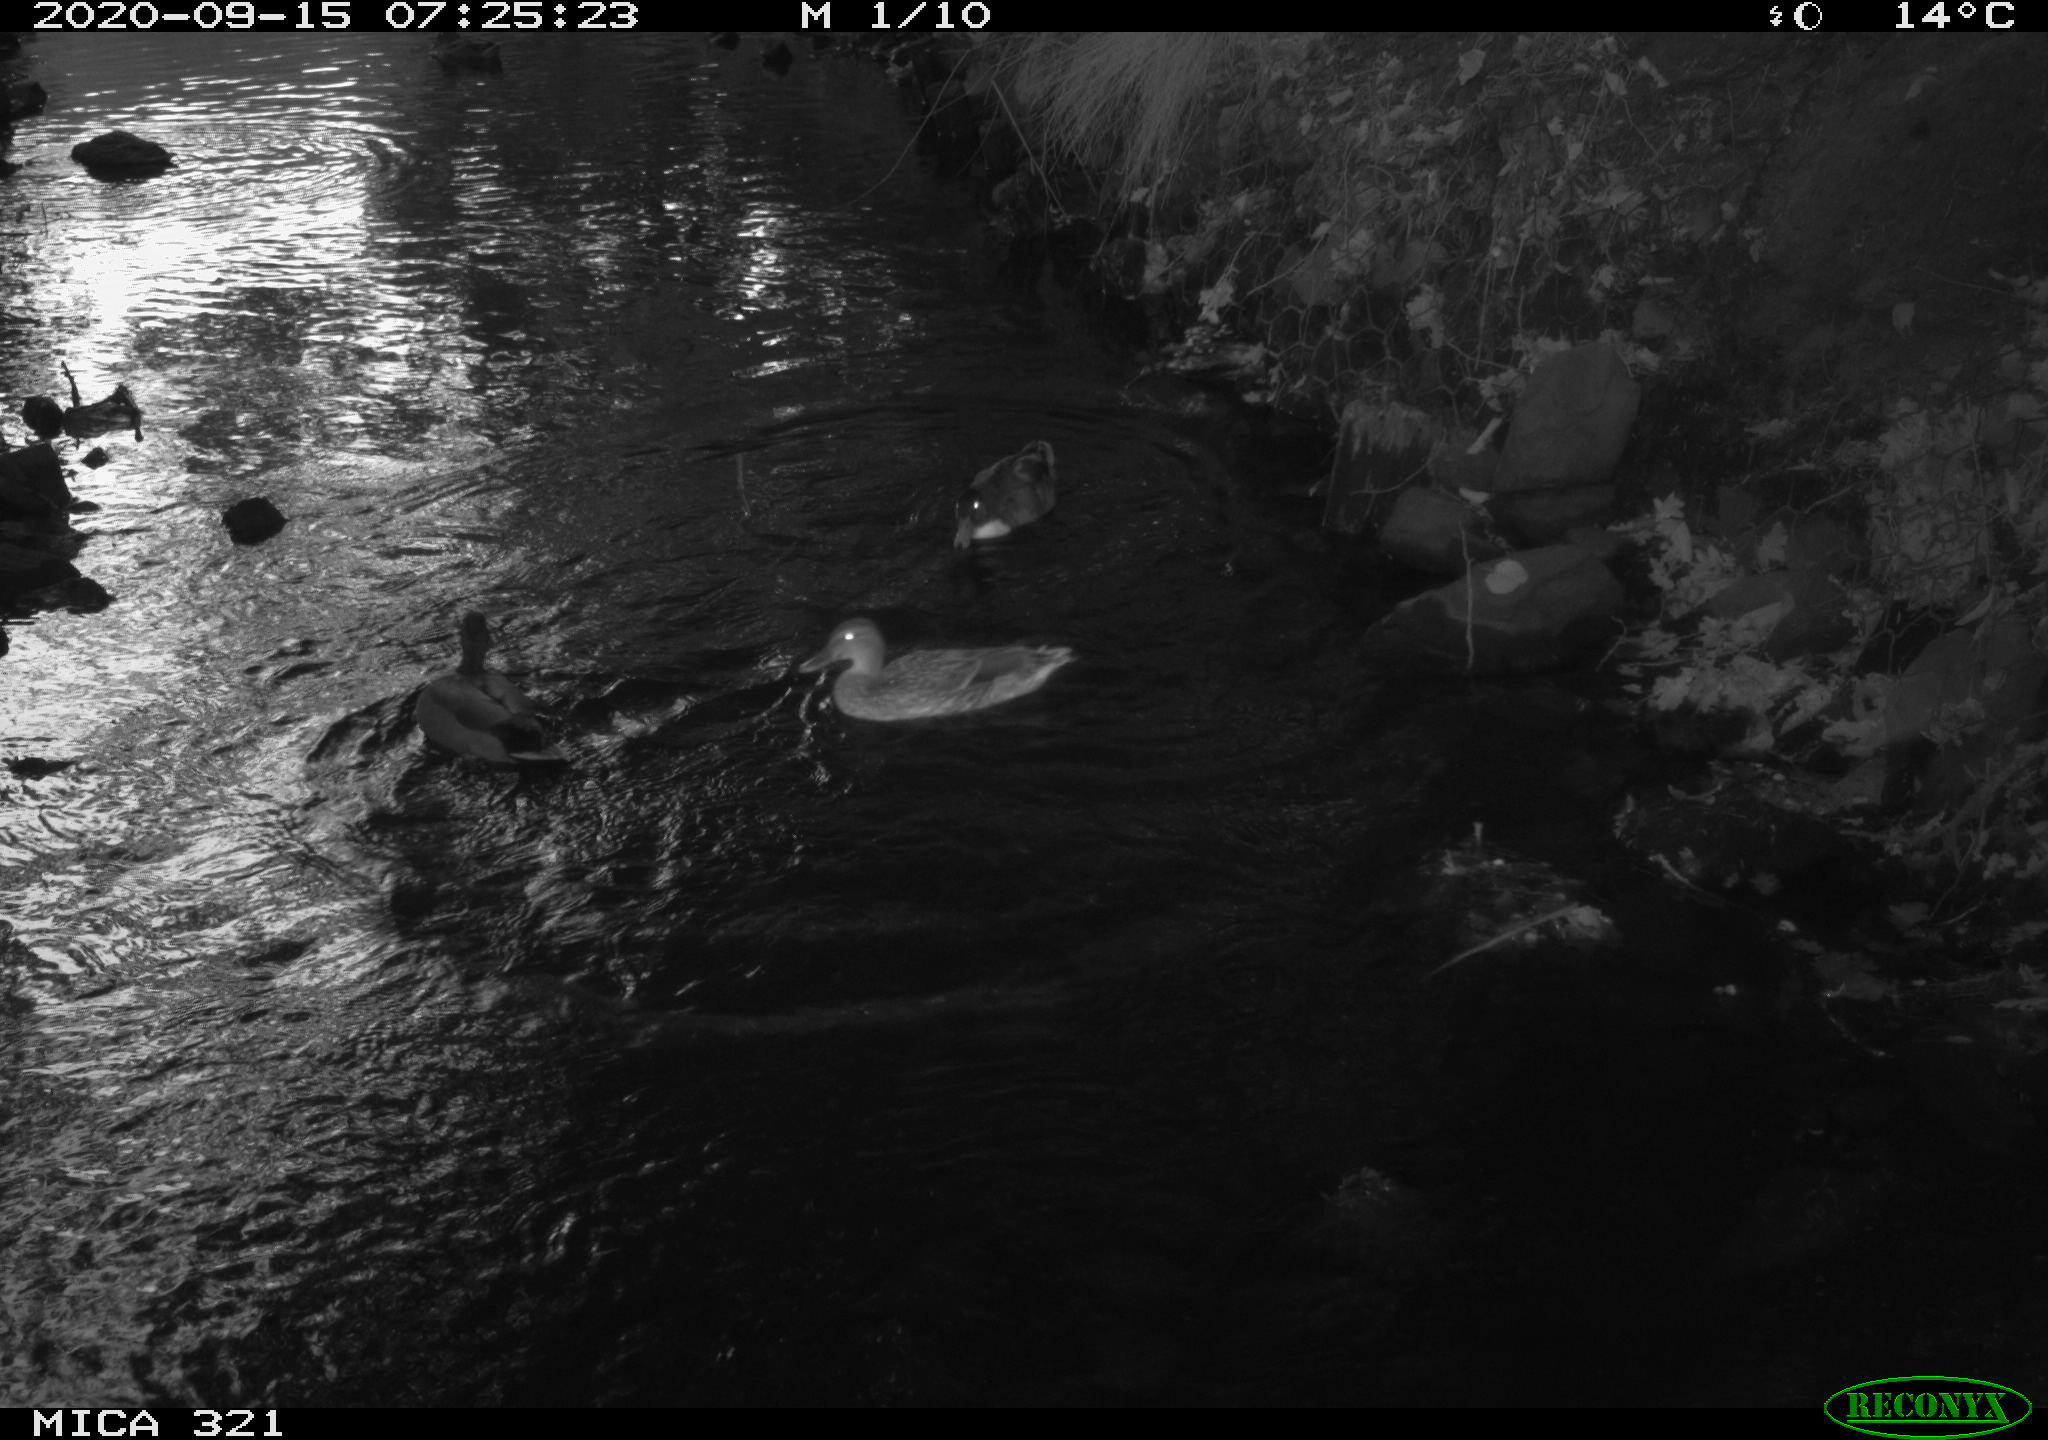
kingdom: Animalia
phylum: Chordata
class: Aves
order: Anseriformes
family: Anatidae
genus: Anas
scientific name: Anas platyrhynchos
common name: Mallard
